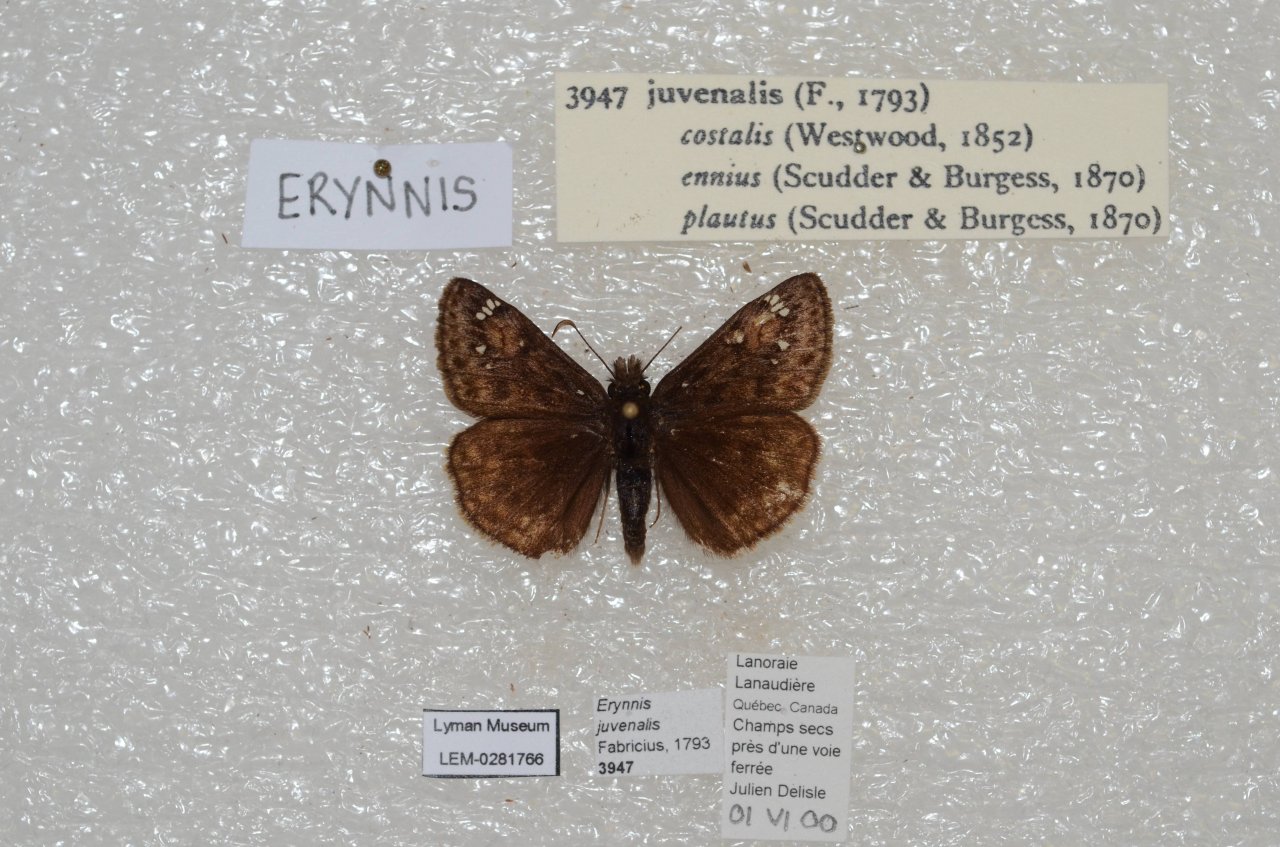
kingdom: Animalia
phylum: Arthropoda
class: Insecta
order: Lepidoptera
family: Hesperiidae
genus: Gesta
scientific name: Gesta
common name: Juvenal's Duskywing
